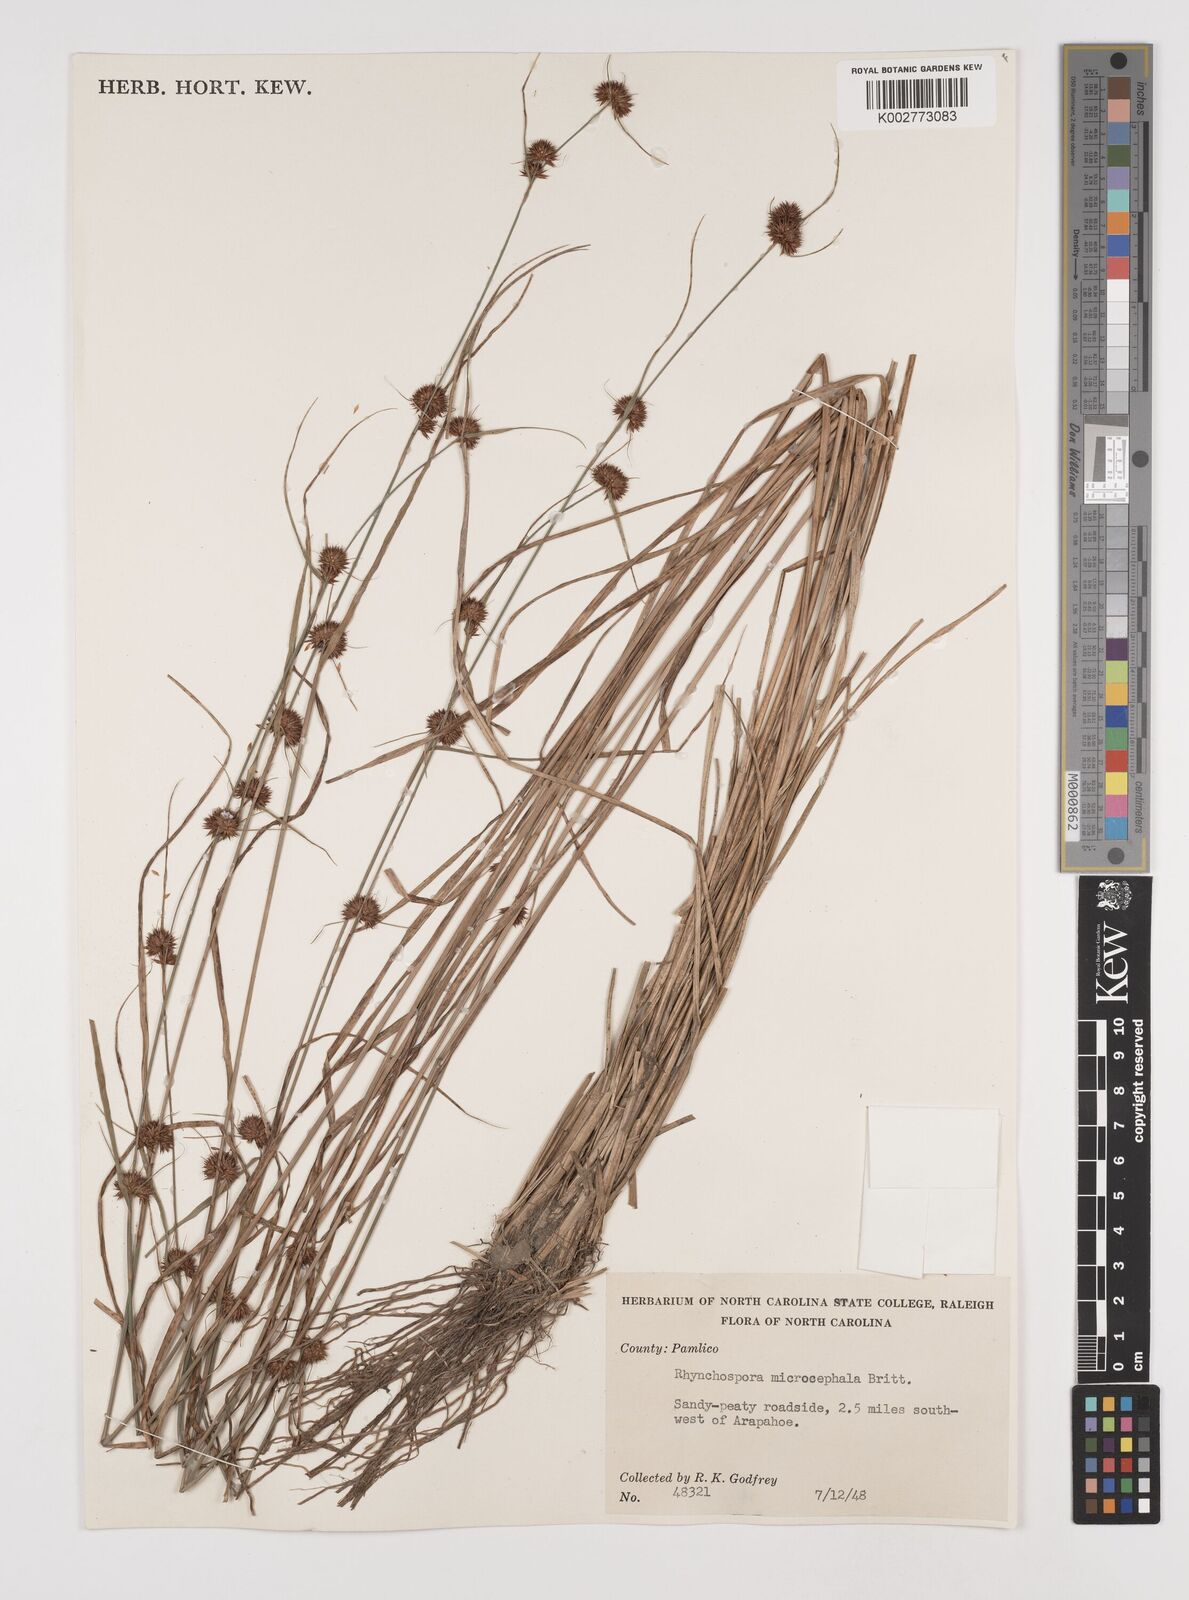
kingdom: Plantae
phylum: Tracheophyta
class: Liliopsida
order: Poales
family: Cyperaceae
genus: Rhynchospora
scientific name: Rhynchospora microcephala
